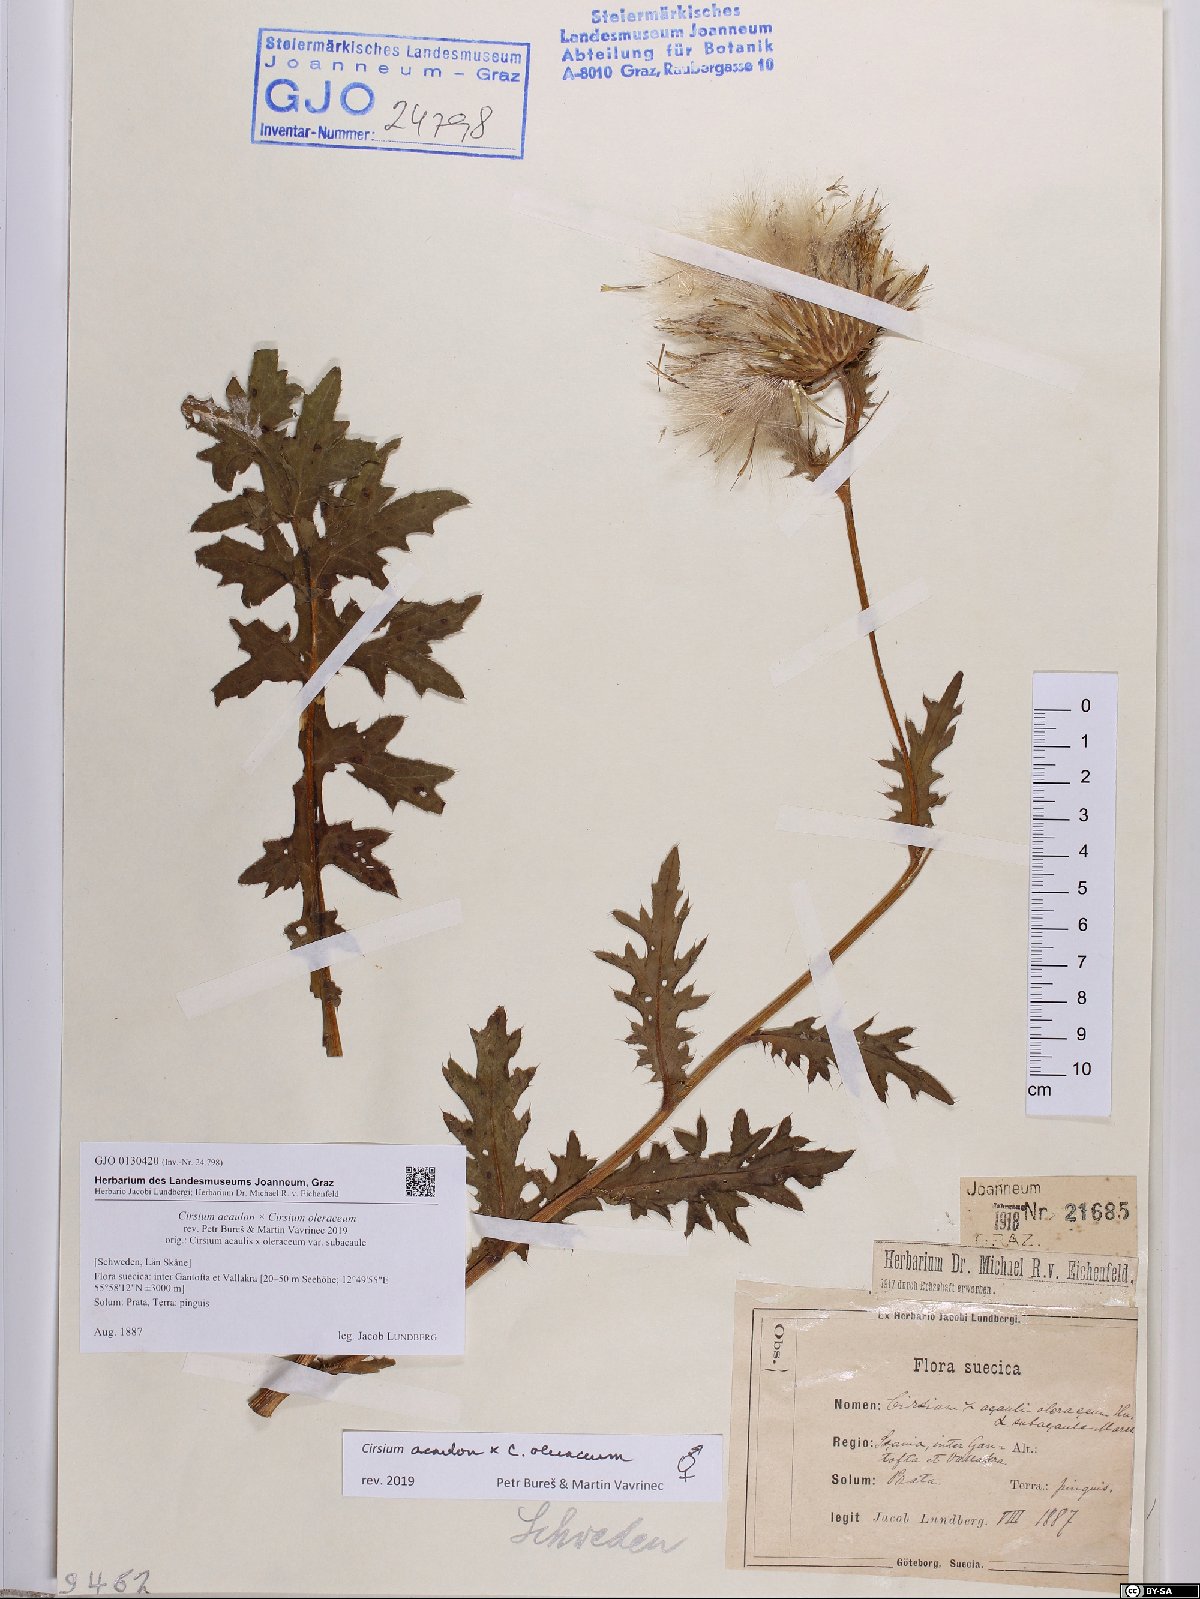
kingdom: Plantae
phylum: Tracheophyta
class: Magnoliopsida
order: Asterales
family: Asteraceae
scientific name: Asteraceae
